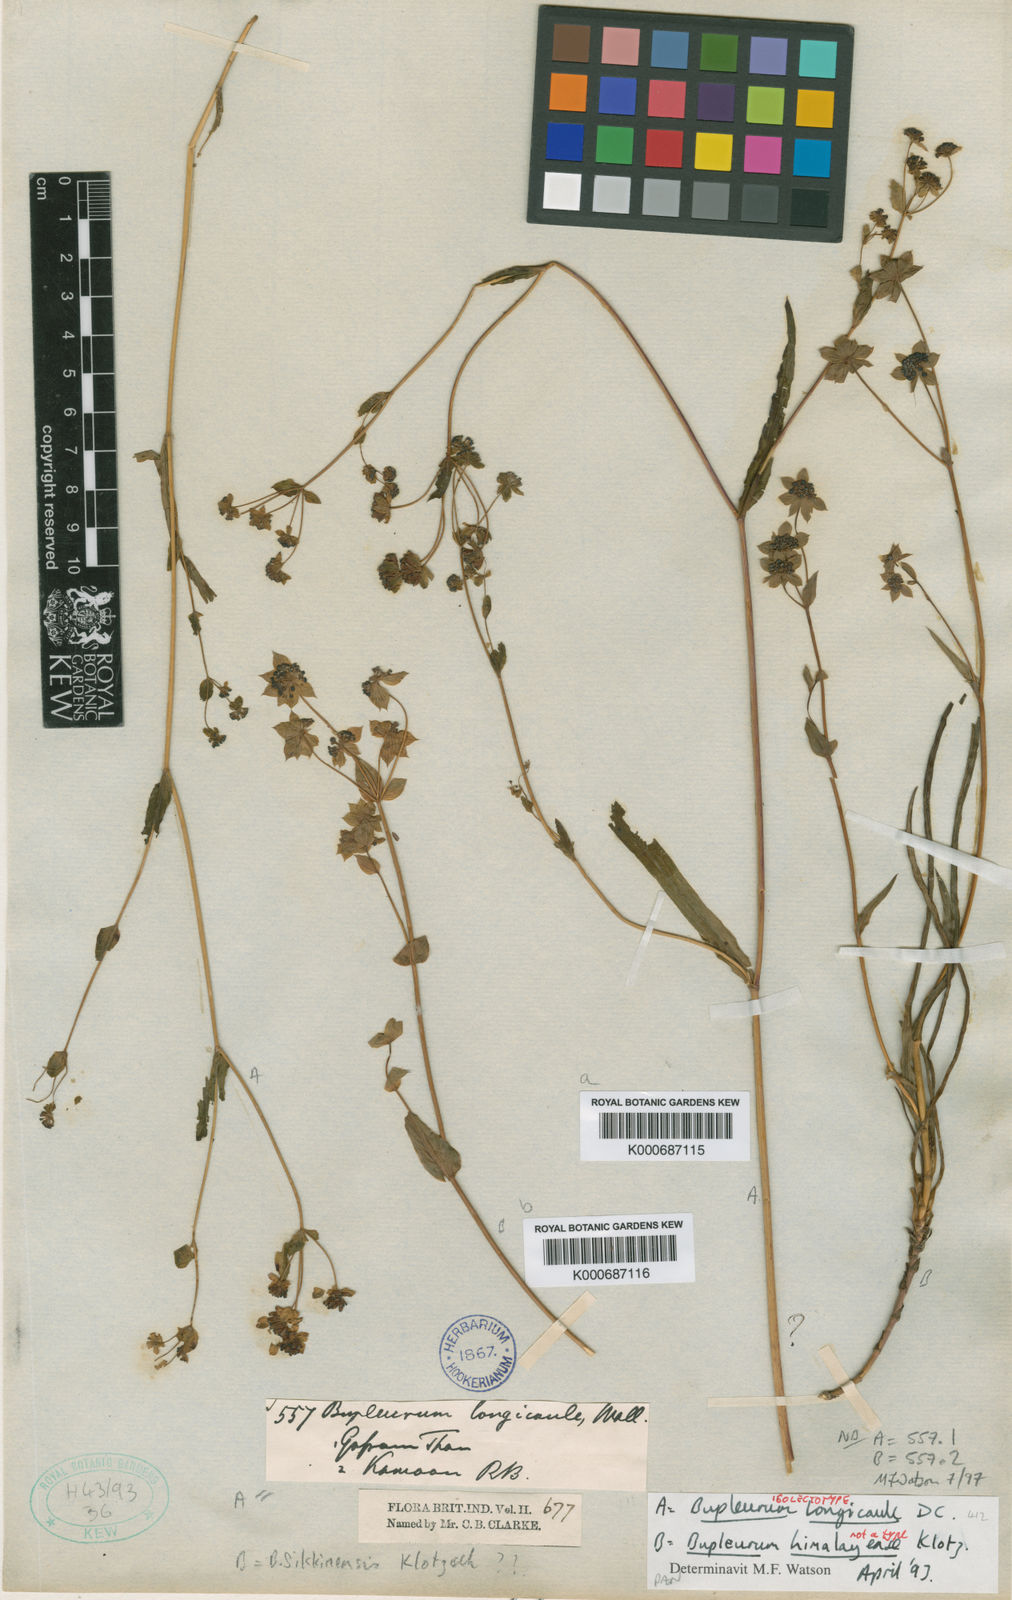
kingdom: Plantae
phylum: Tracheophyta
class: Magnoliopsida
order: Apiales
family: Apiaceae
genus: Bupleurum
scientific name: Bupleurum longicaule
